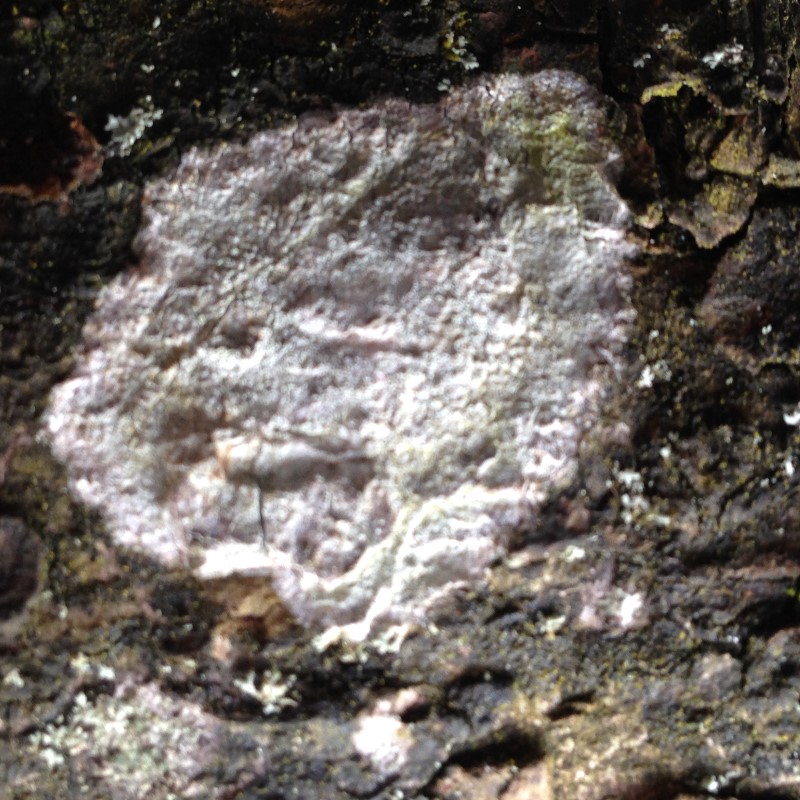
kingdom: Fungi
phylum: Ascomycota
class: Lecanoromycetes
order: Ostropales
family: Phlyctidaceae
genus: Phlyctis
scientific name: Phlyctis argena
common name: almindelig sølvlav
